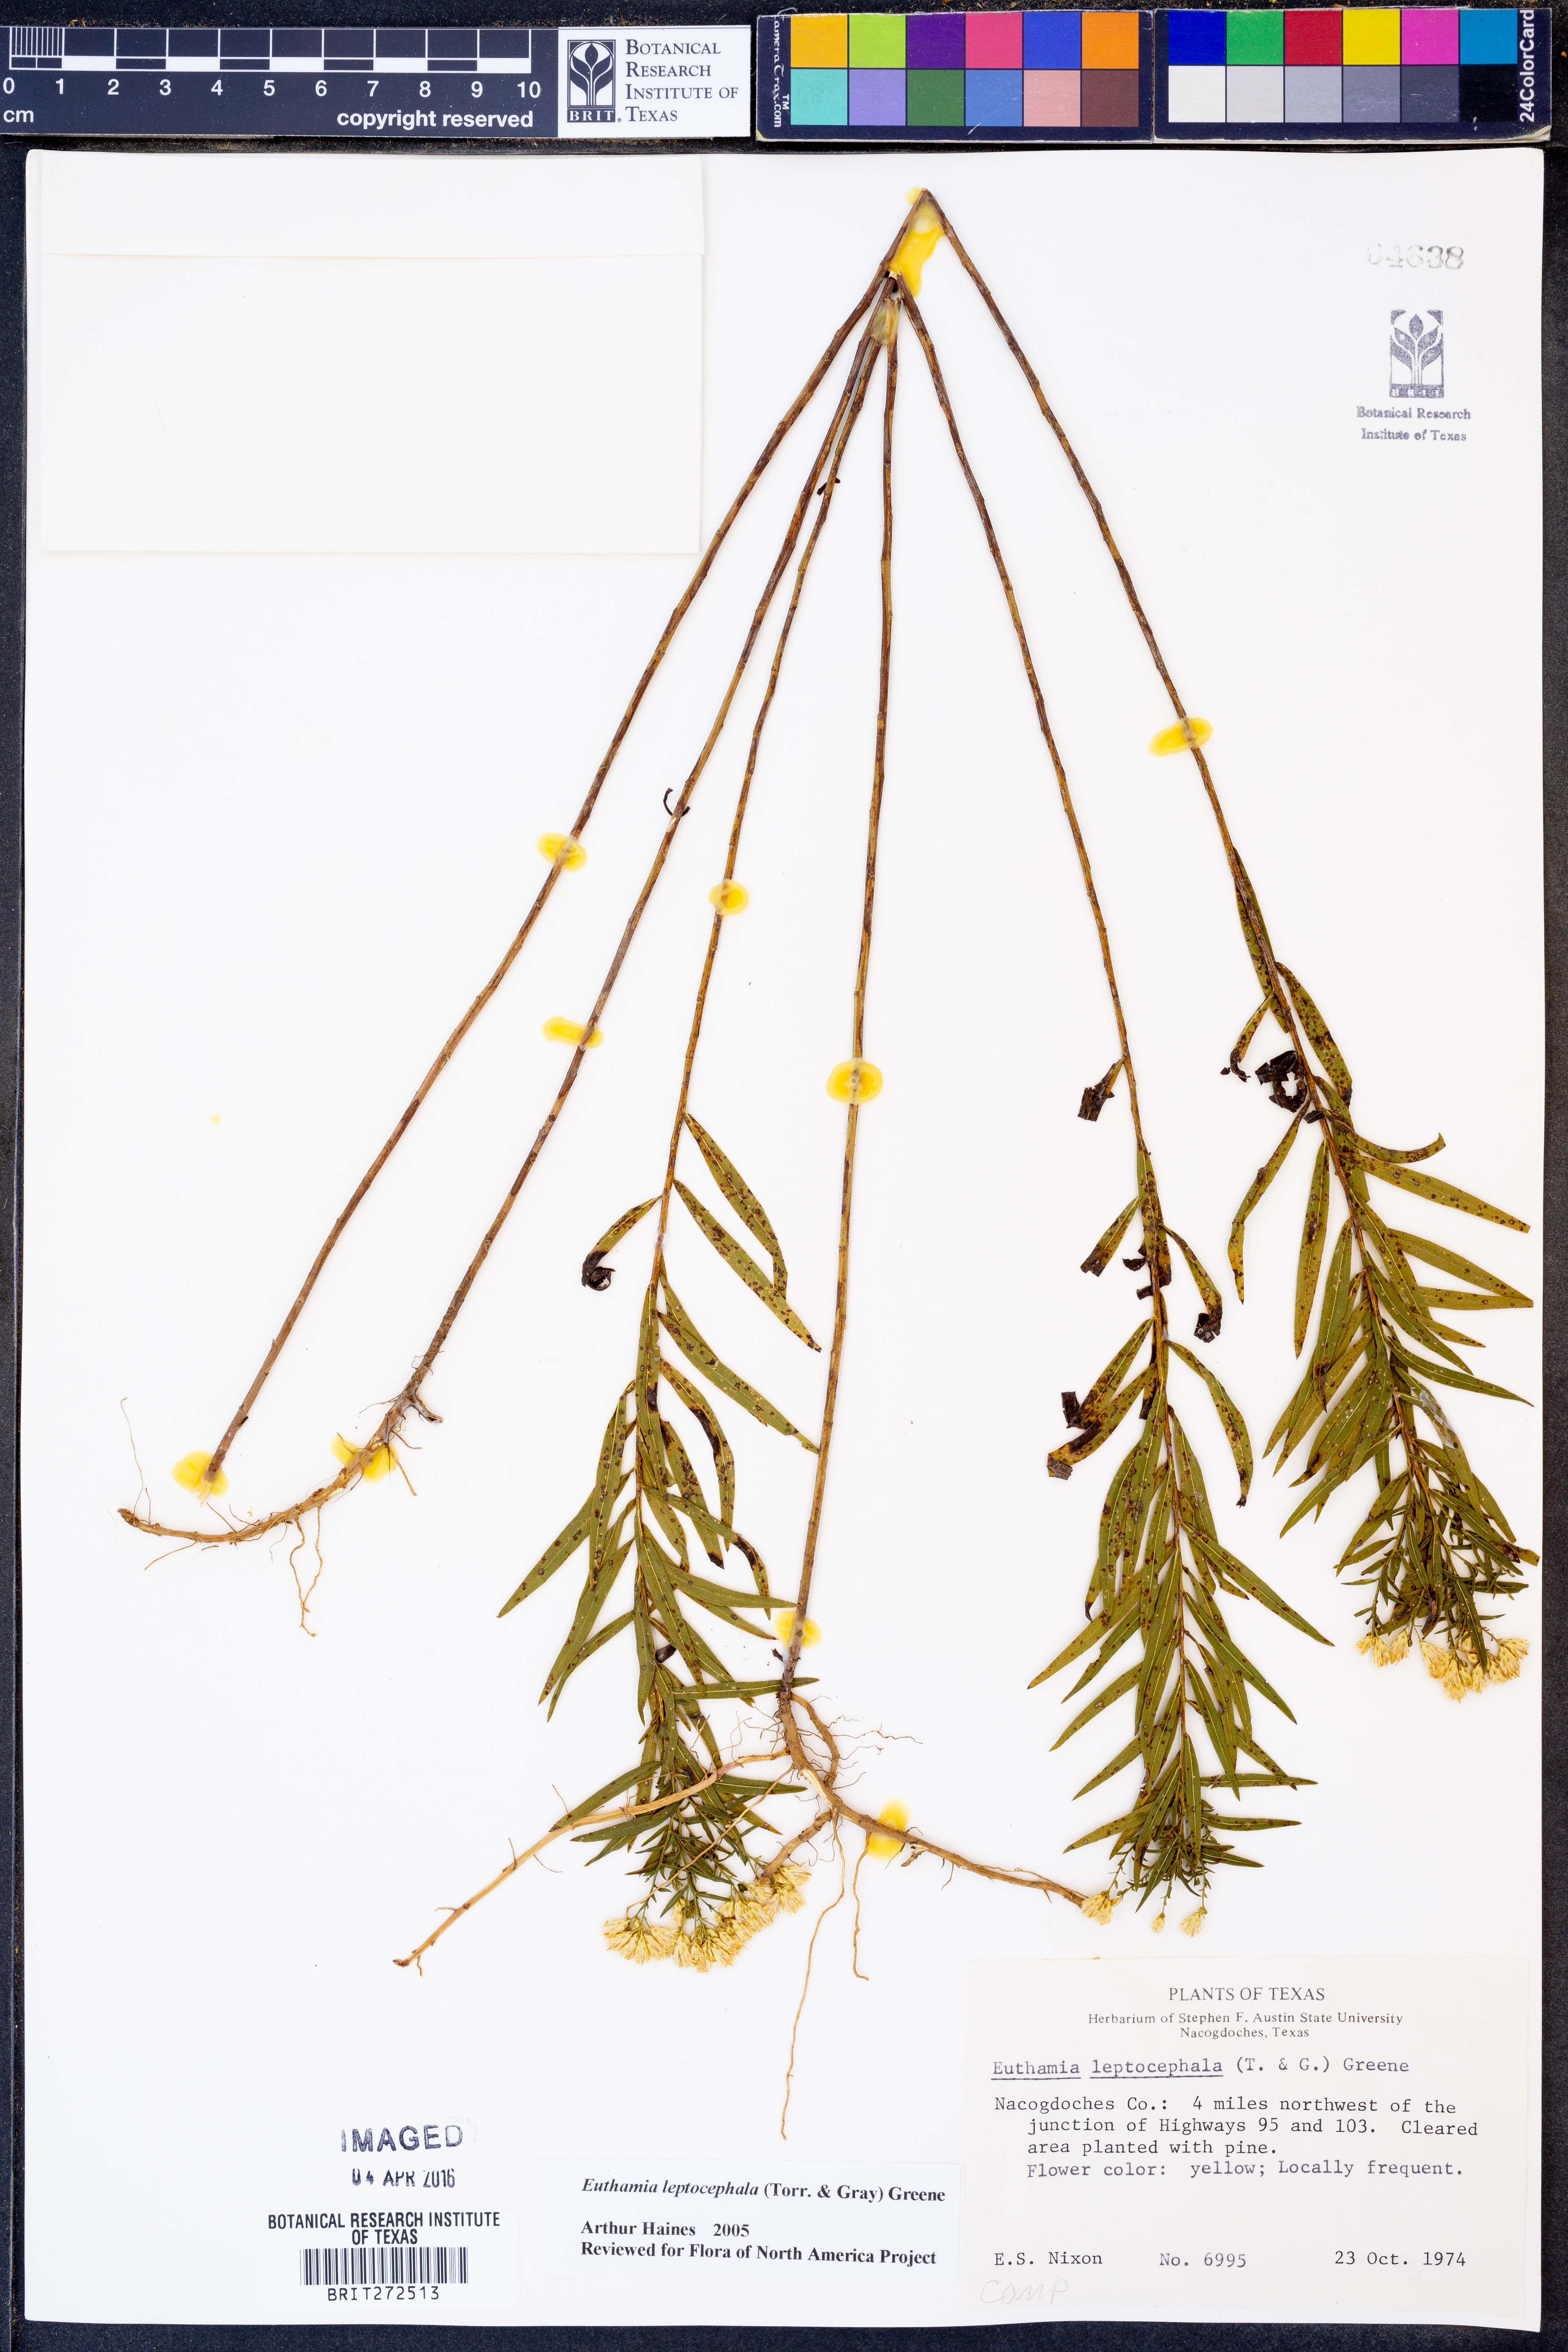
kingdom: Plantae
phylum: Tracheophyta
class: Magnoliopsida
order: Asterales
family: Asteraceae
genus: Euthamia
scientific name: Euthamia leptocephala
